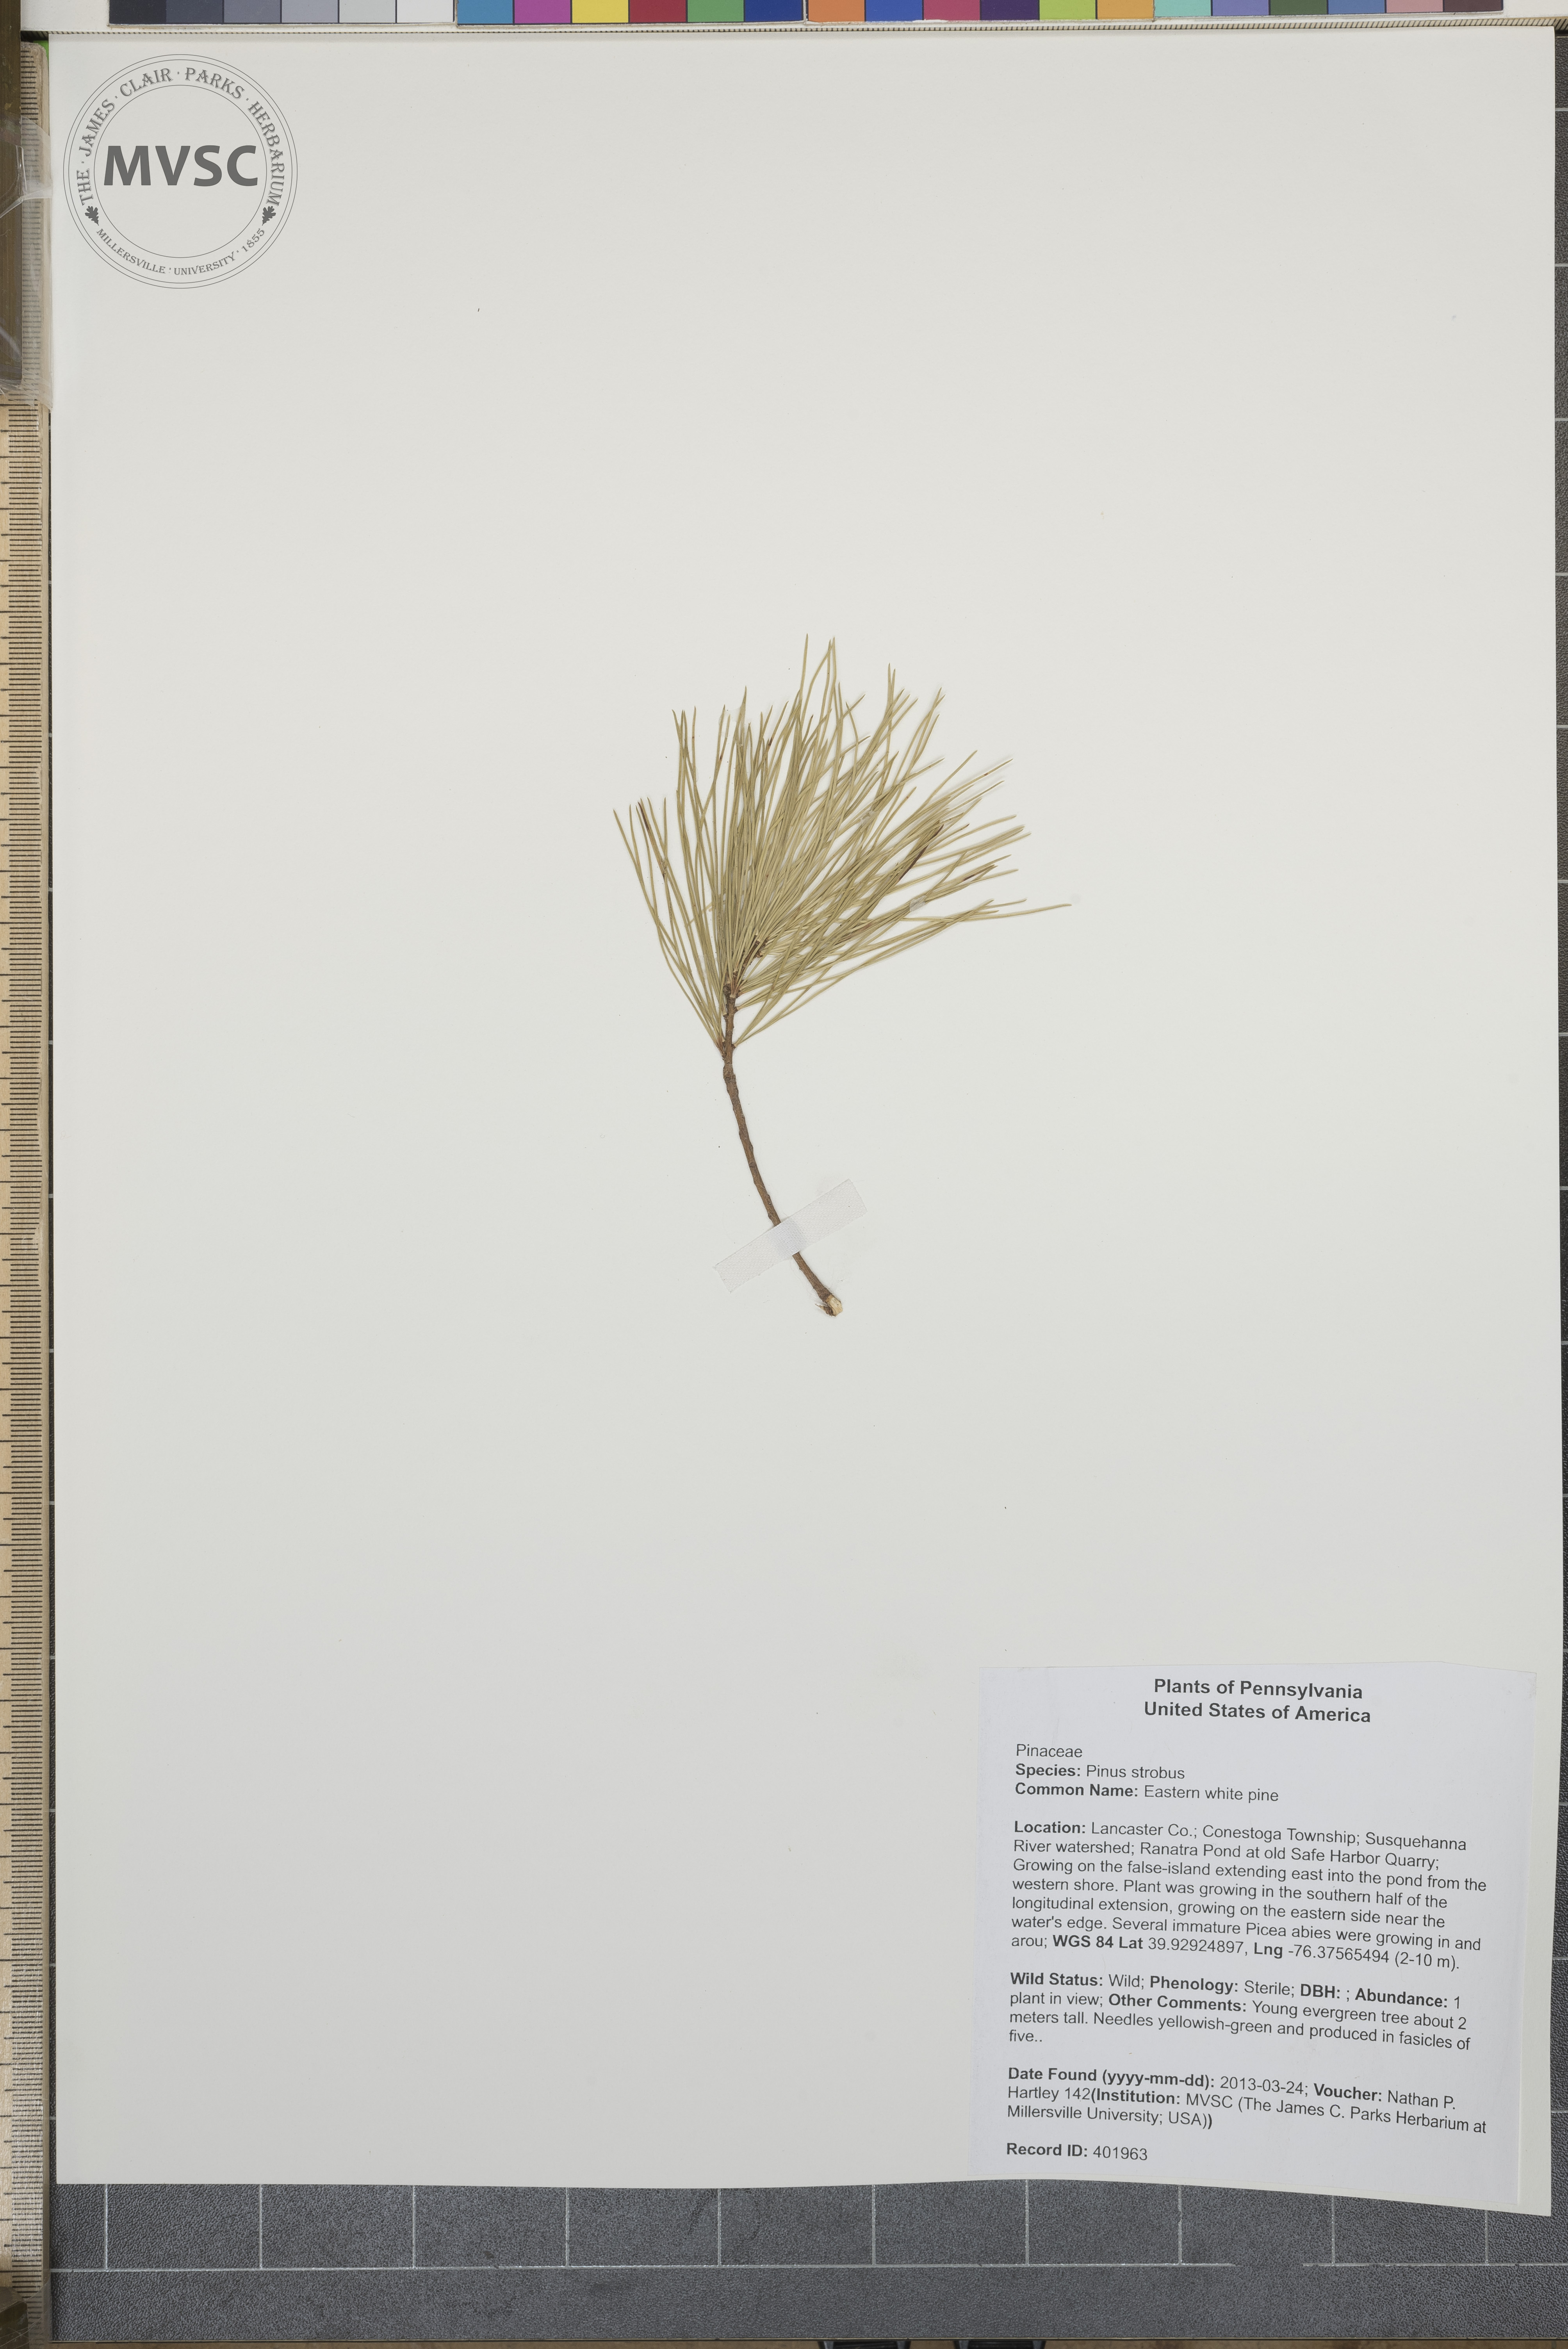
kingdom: Plantae
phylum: Tracheophyta
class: Pinopsida
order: Pinales
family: Pinaceae
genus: Pinus
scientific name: Pinus strobus
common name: Eastern white pine
